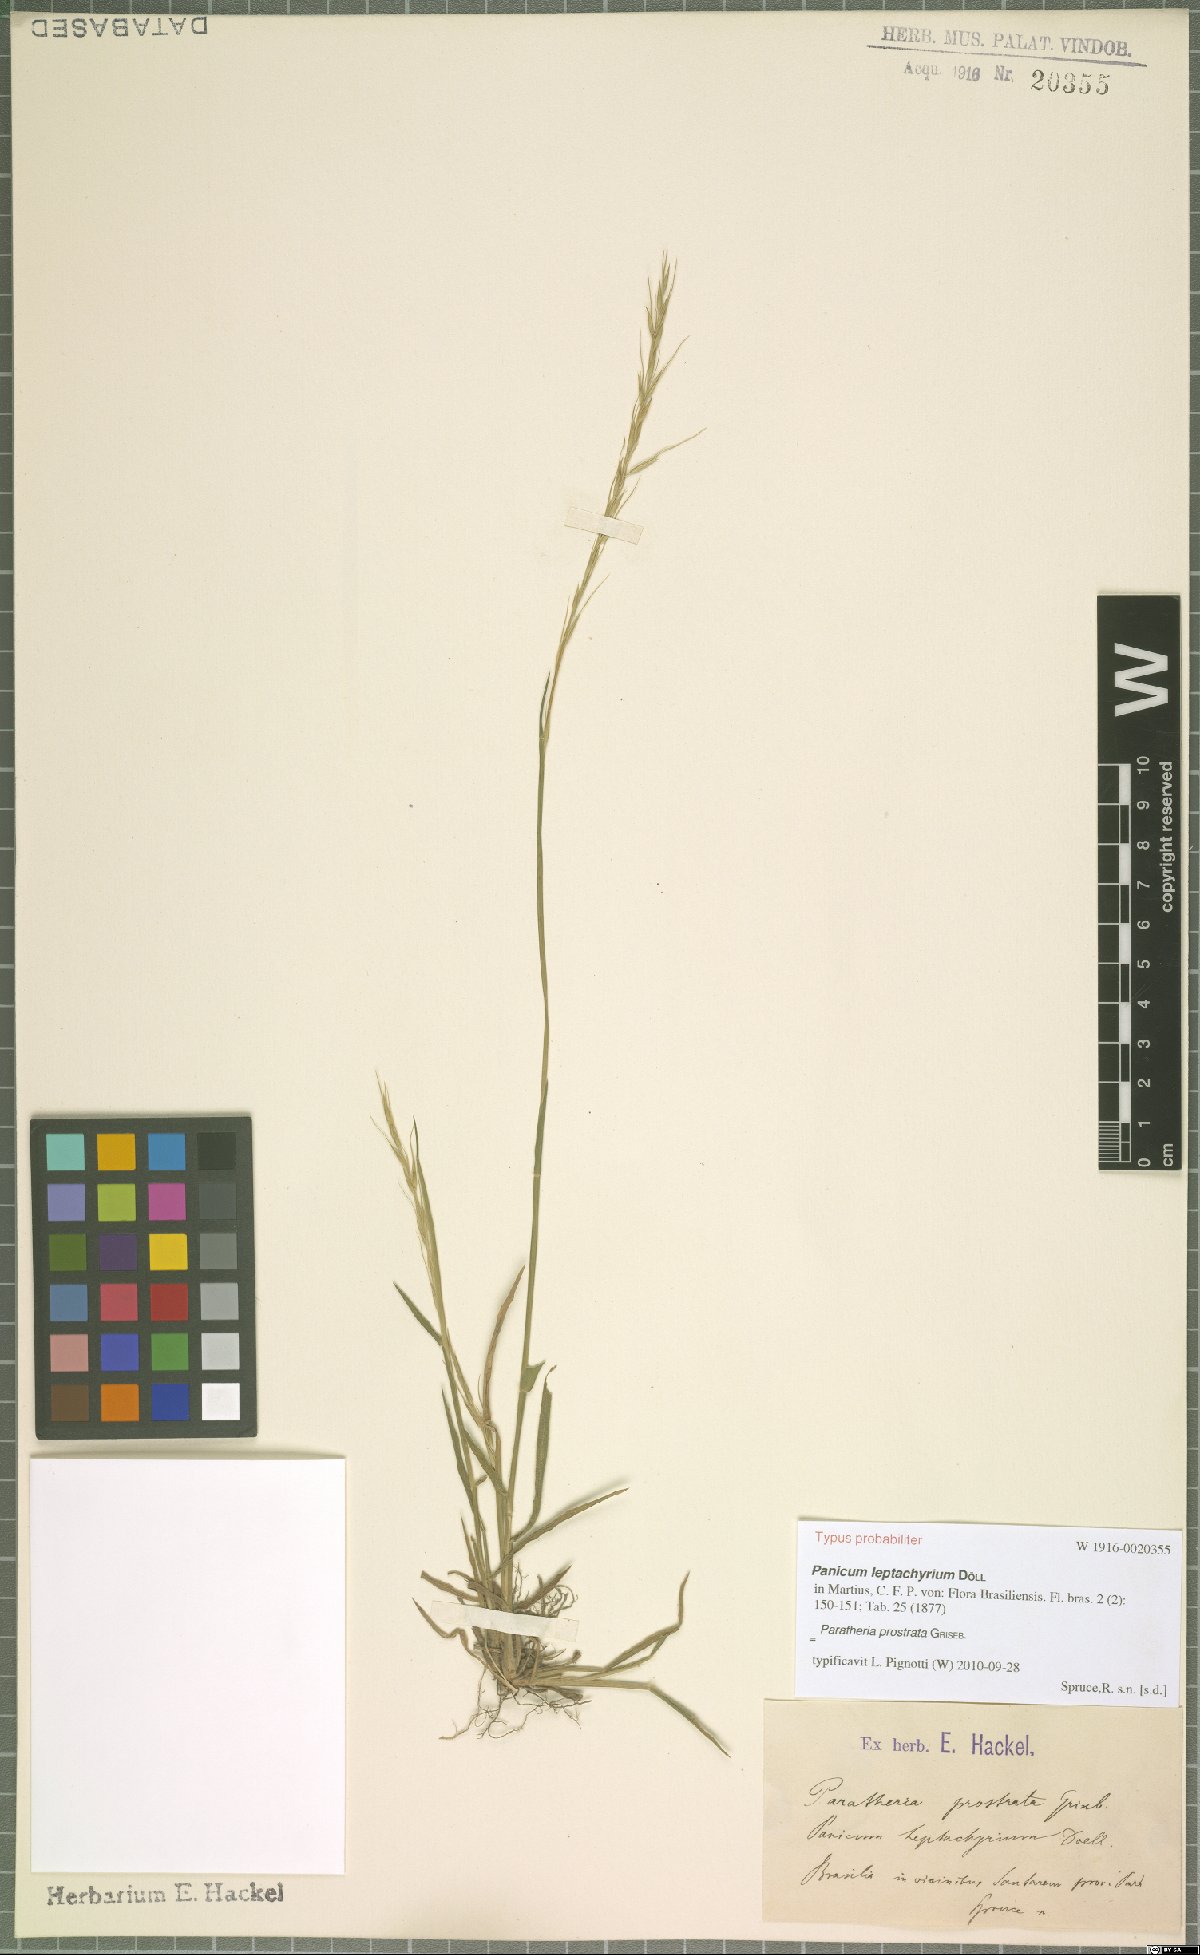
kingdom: Plantae
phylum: Tracheophyta
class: Liliopsida
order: Poales
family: Poaceae
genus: Paratheria
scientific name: Paratheria prostrata
